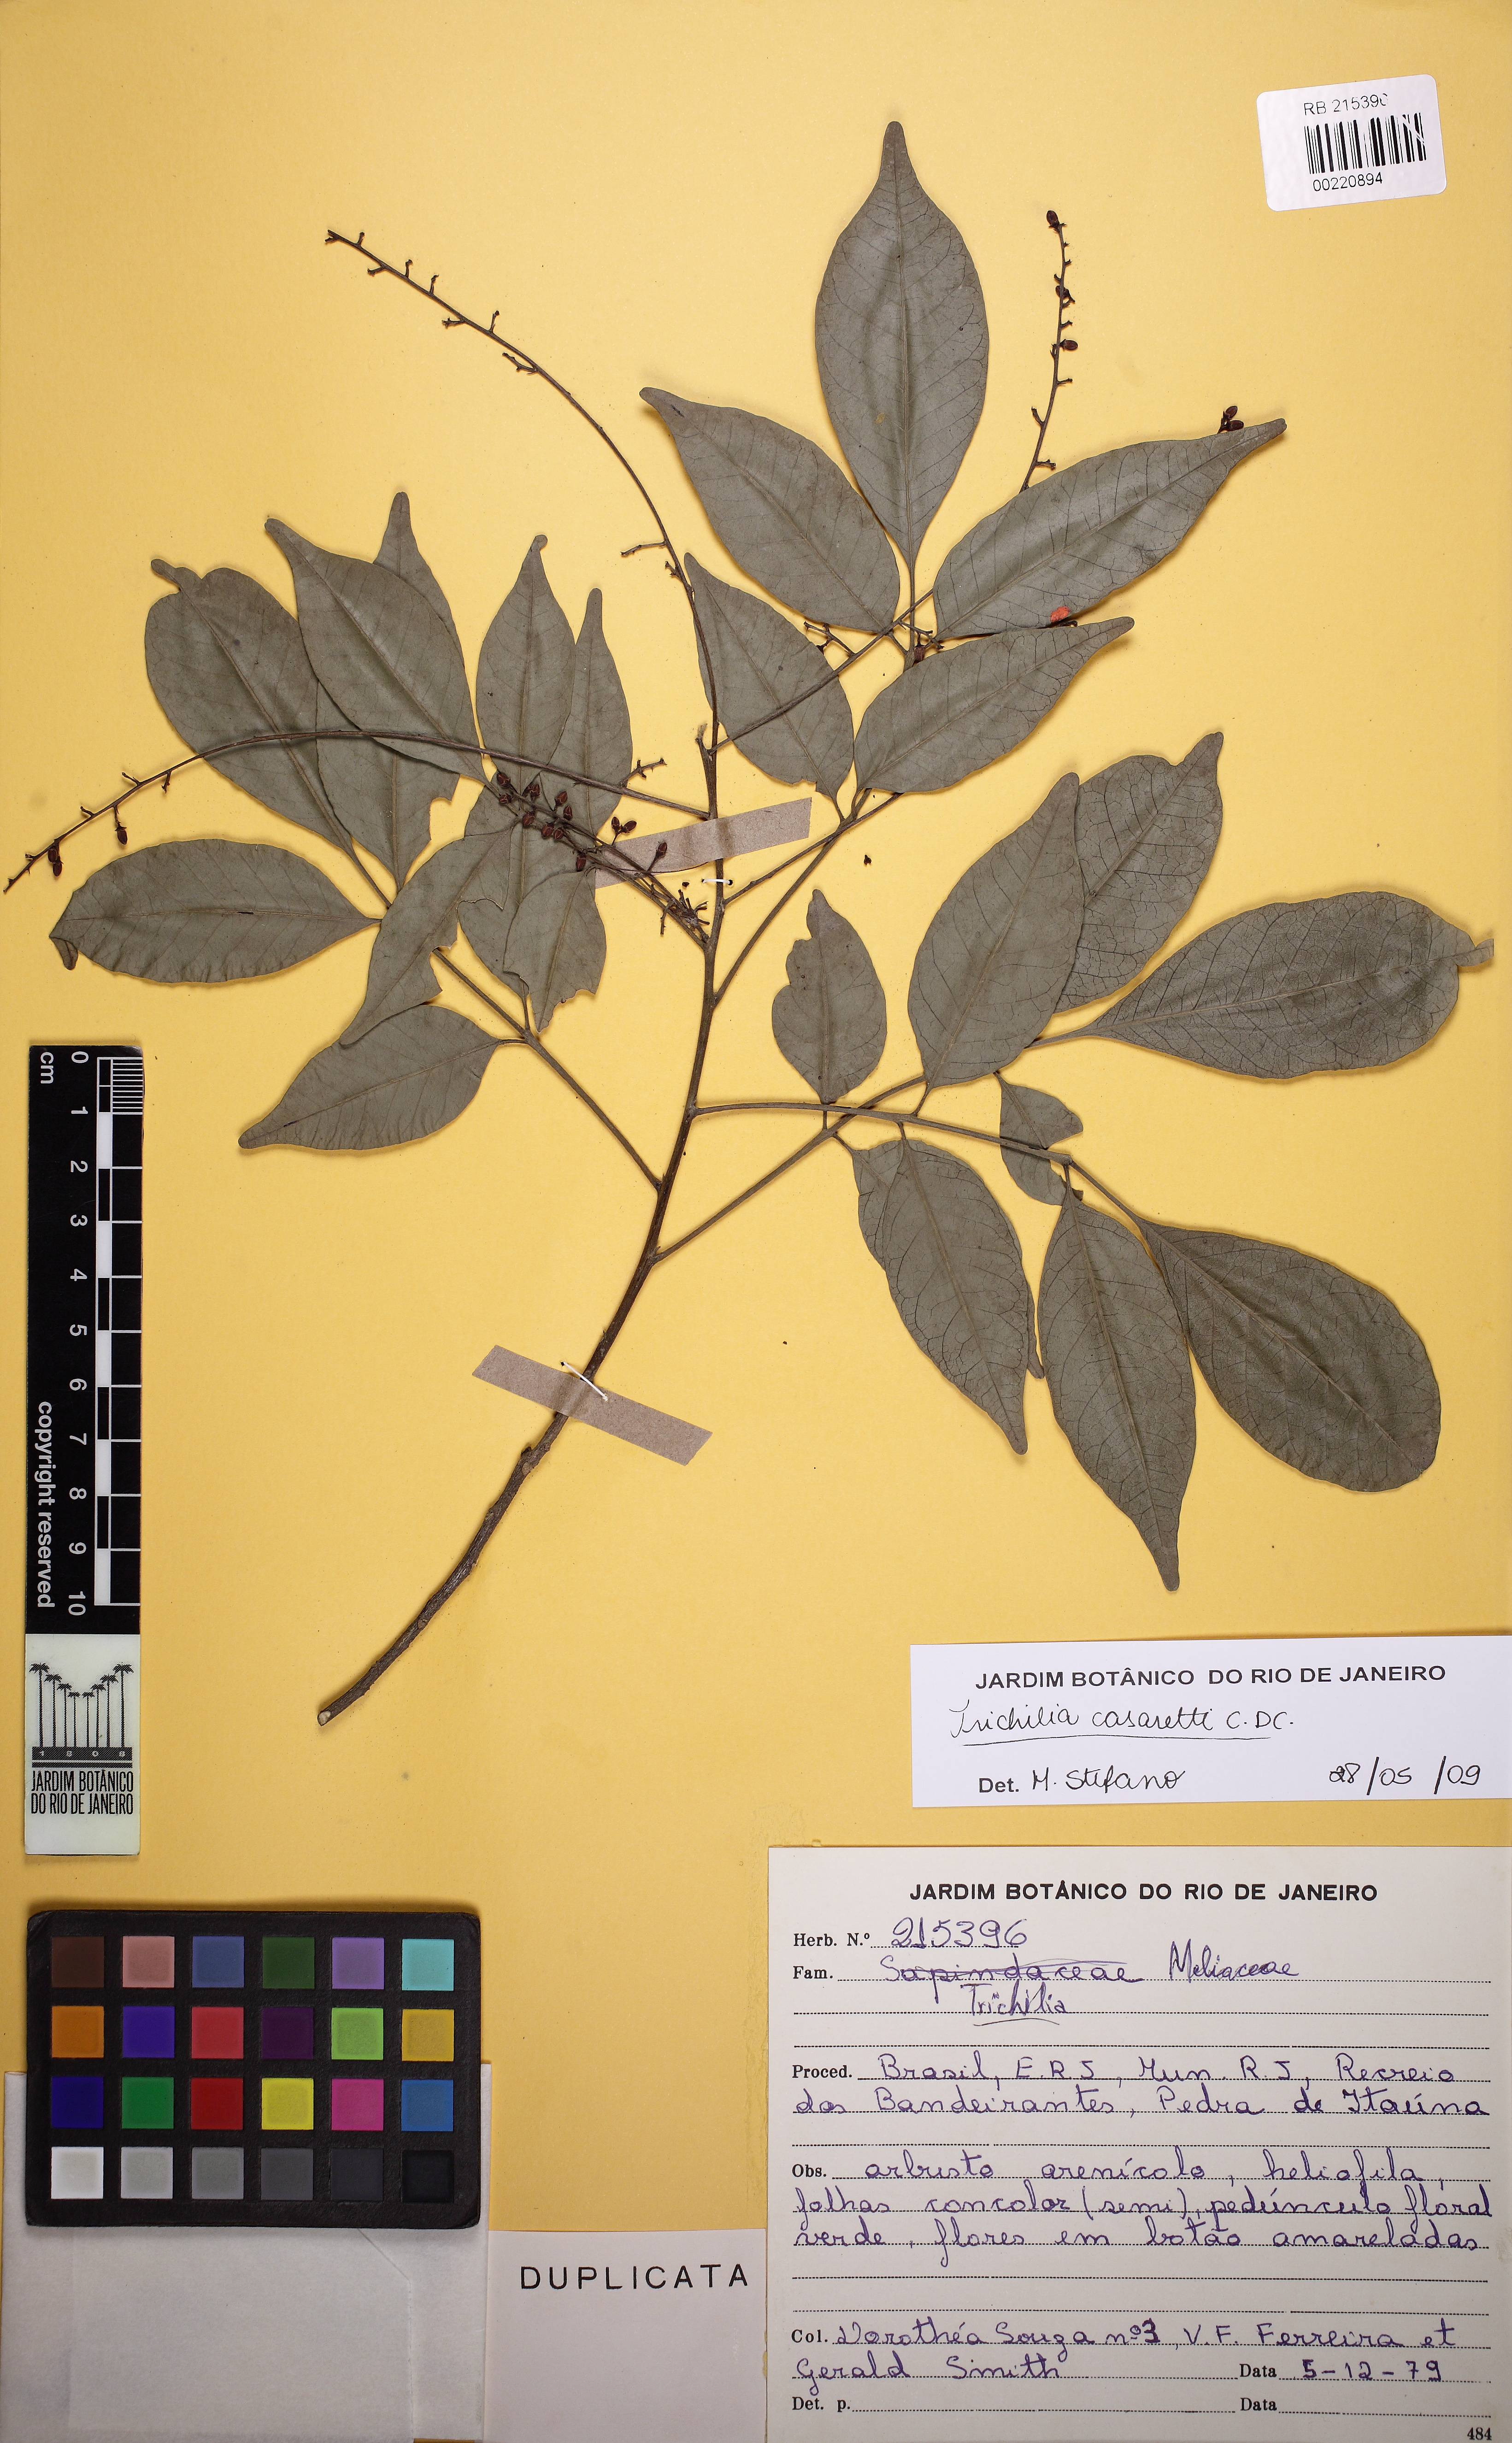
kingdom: Plantae
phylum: Tracheophyta
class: Magnoliopsida
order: Sapindales
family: Meliaceae
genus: Trichilia
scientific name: Trichilia casaretti
